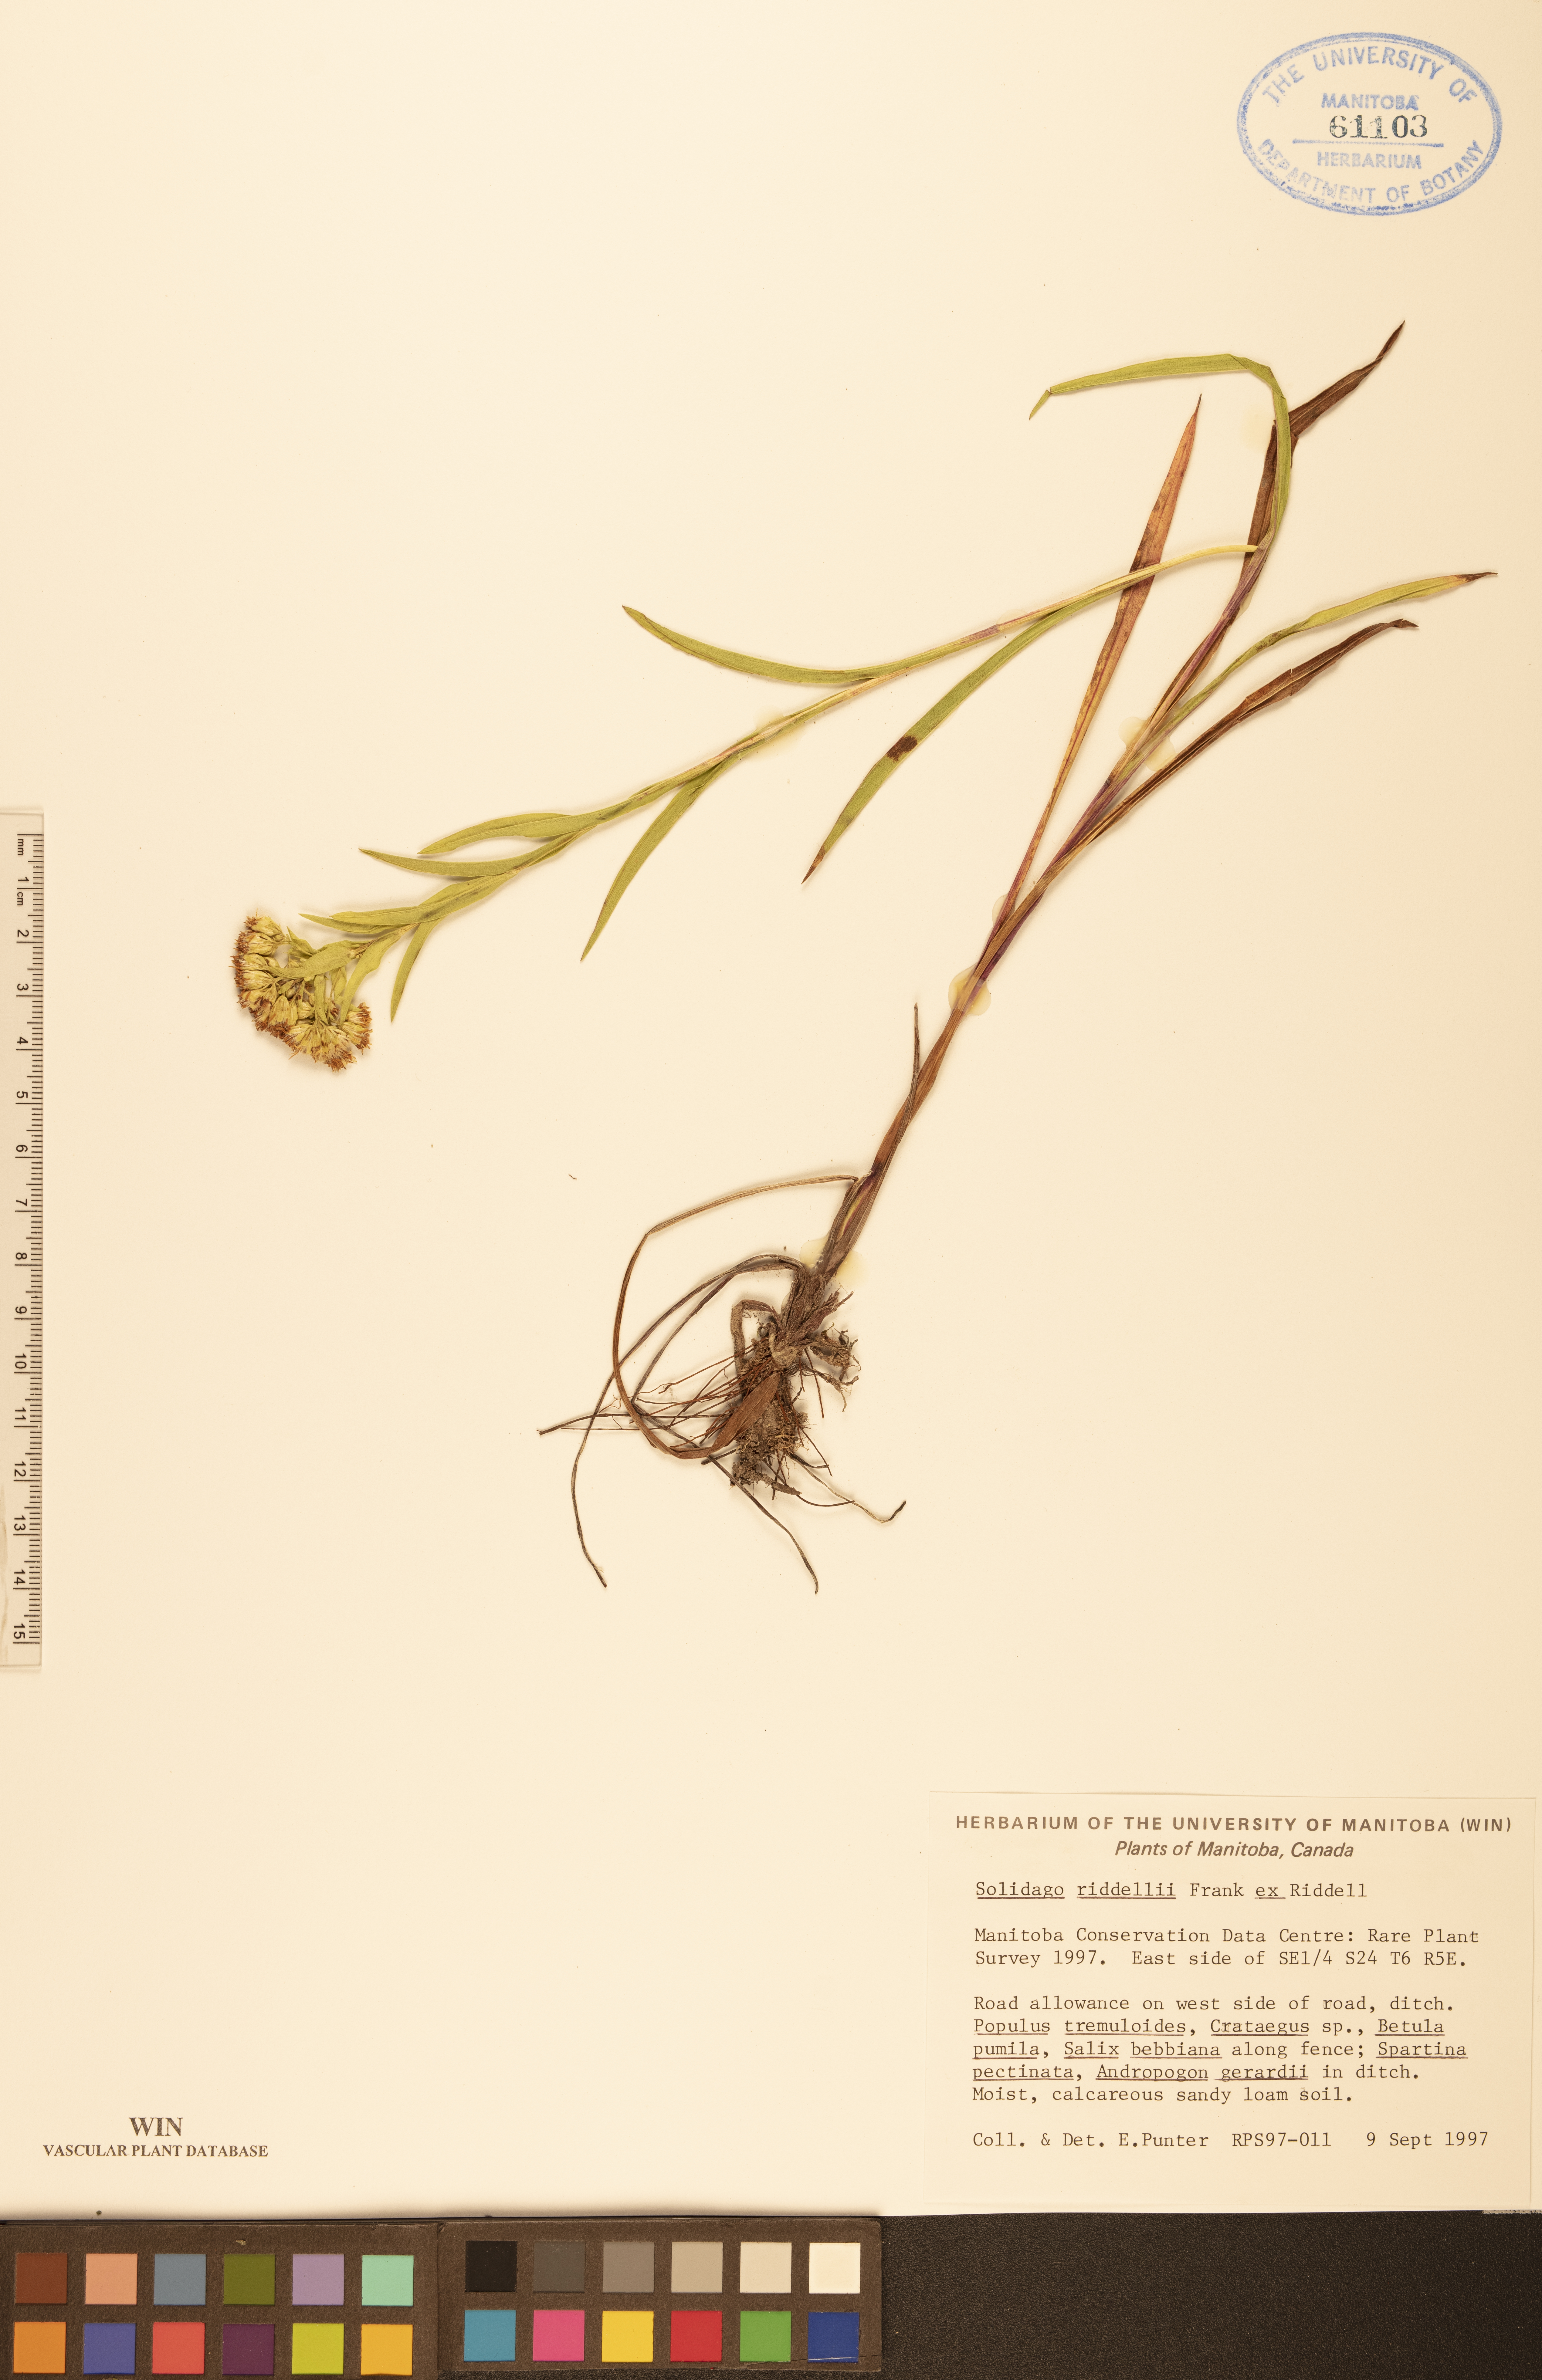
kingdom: Plantae
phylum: Tracheophyta
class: Magnoliopsida
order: Asterales
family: Asteraceae
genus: Solidago
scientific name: Solidago riddellii
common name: Riddell's goldenrod
